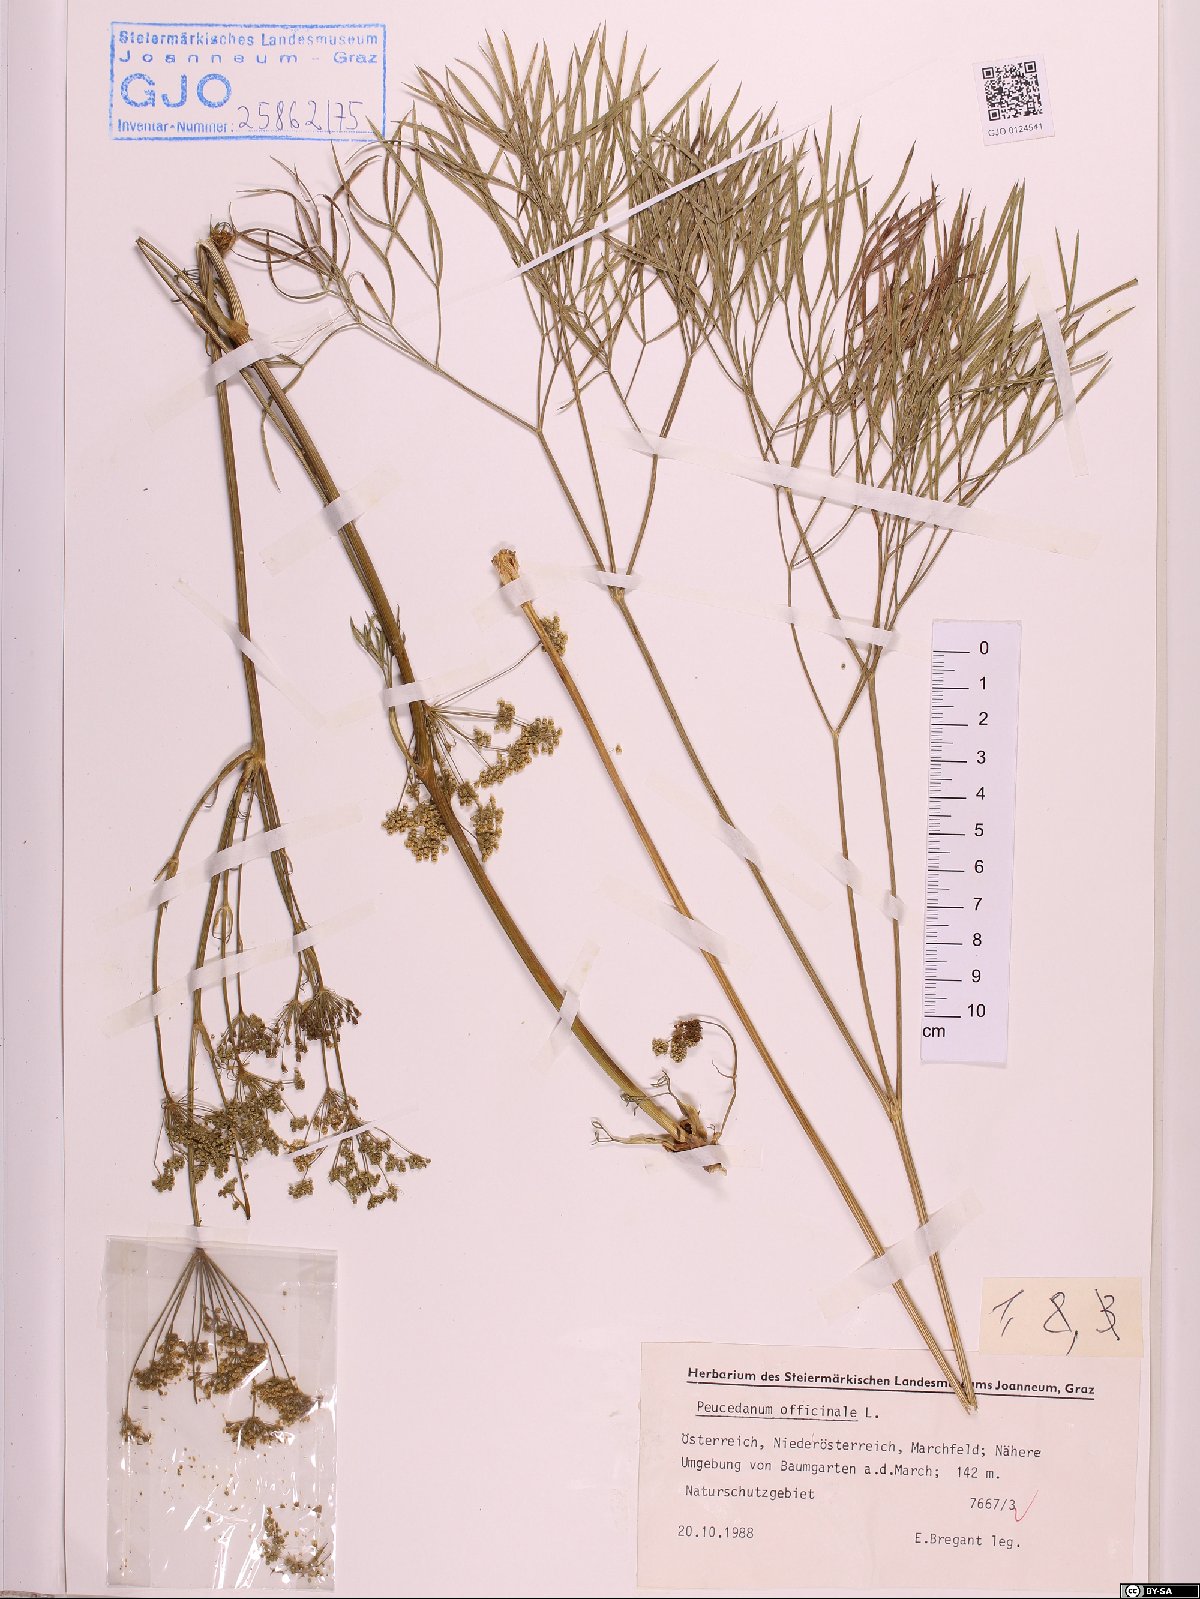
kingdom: Plantae
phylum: Tracheophyta
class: Magnoliopsida
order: Apiales
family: Apiaceae
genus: Peucedanum
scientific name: Peucedanum officinale
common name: Sulphurweed
